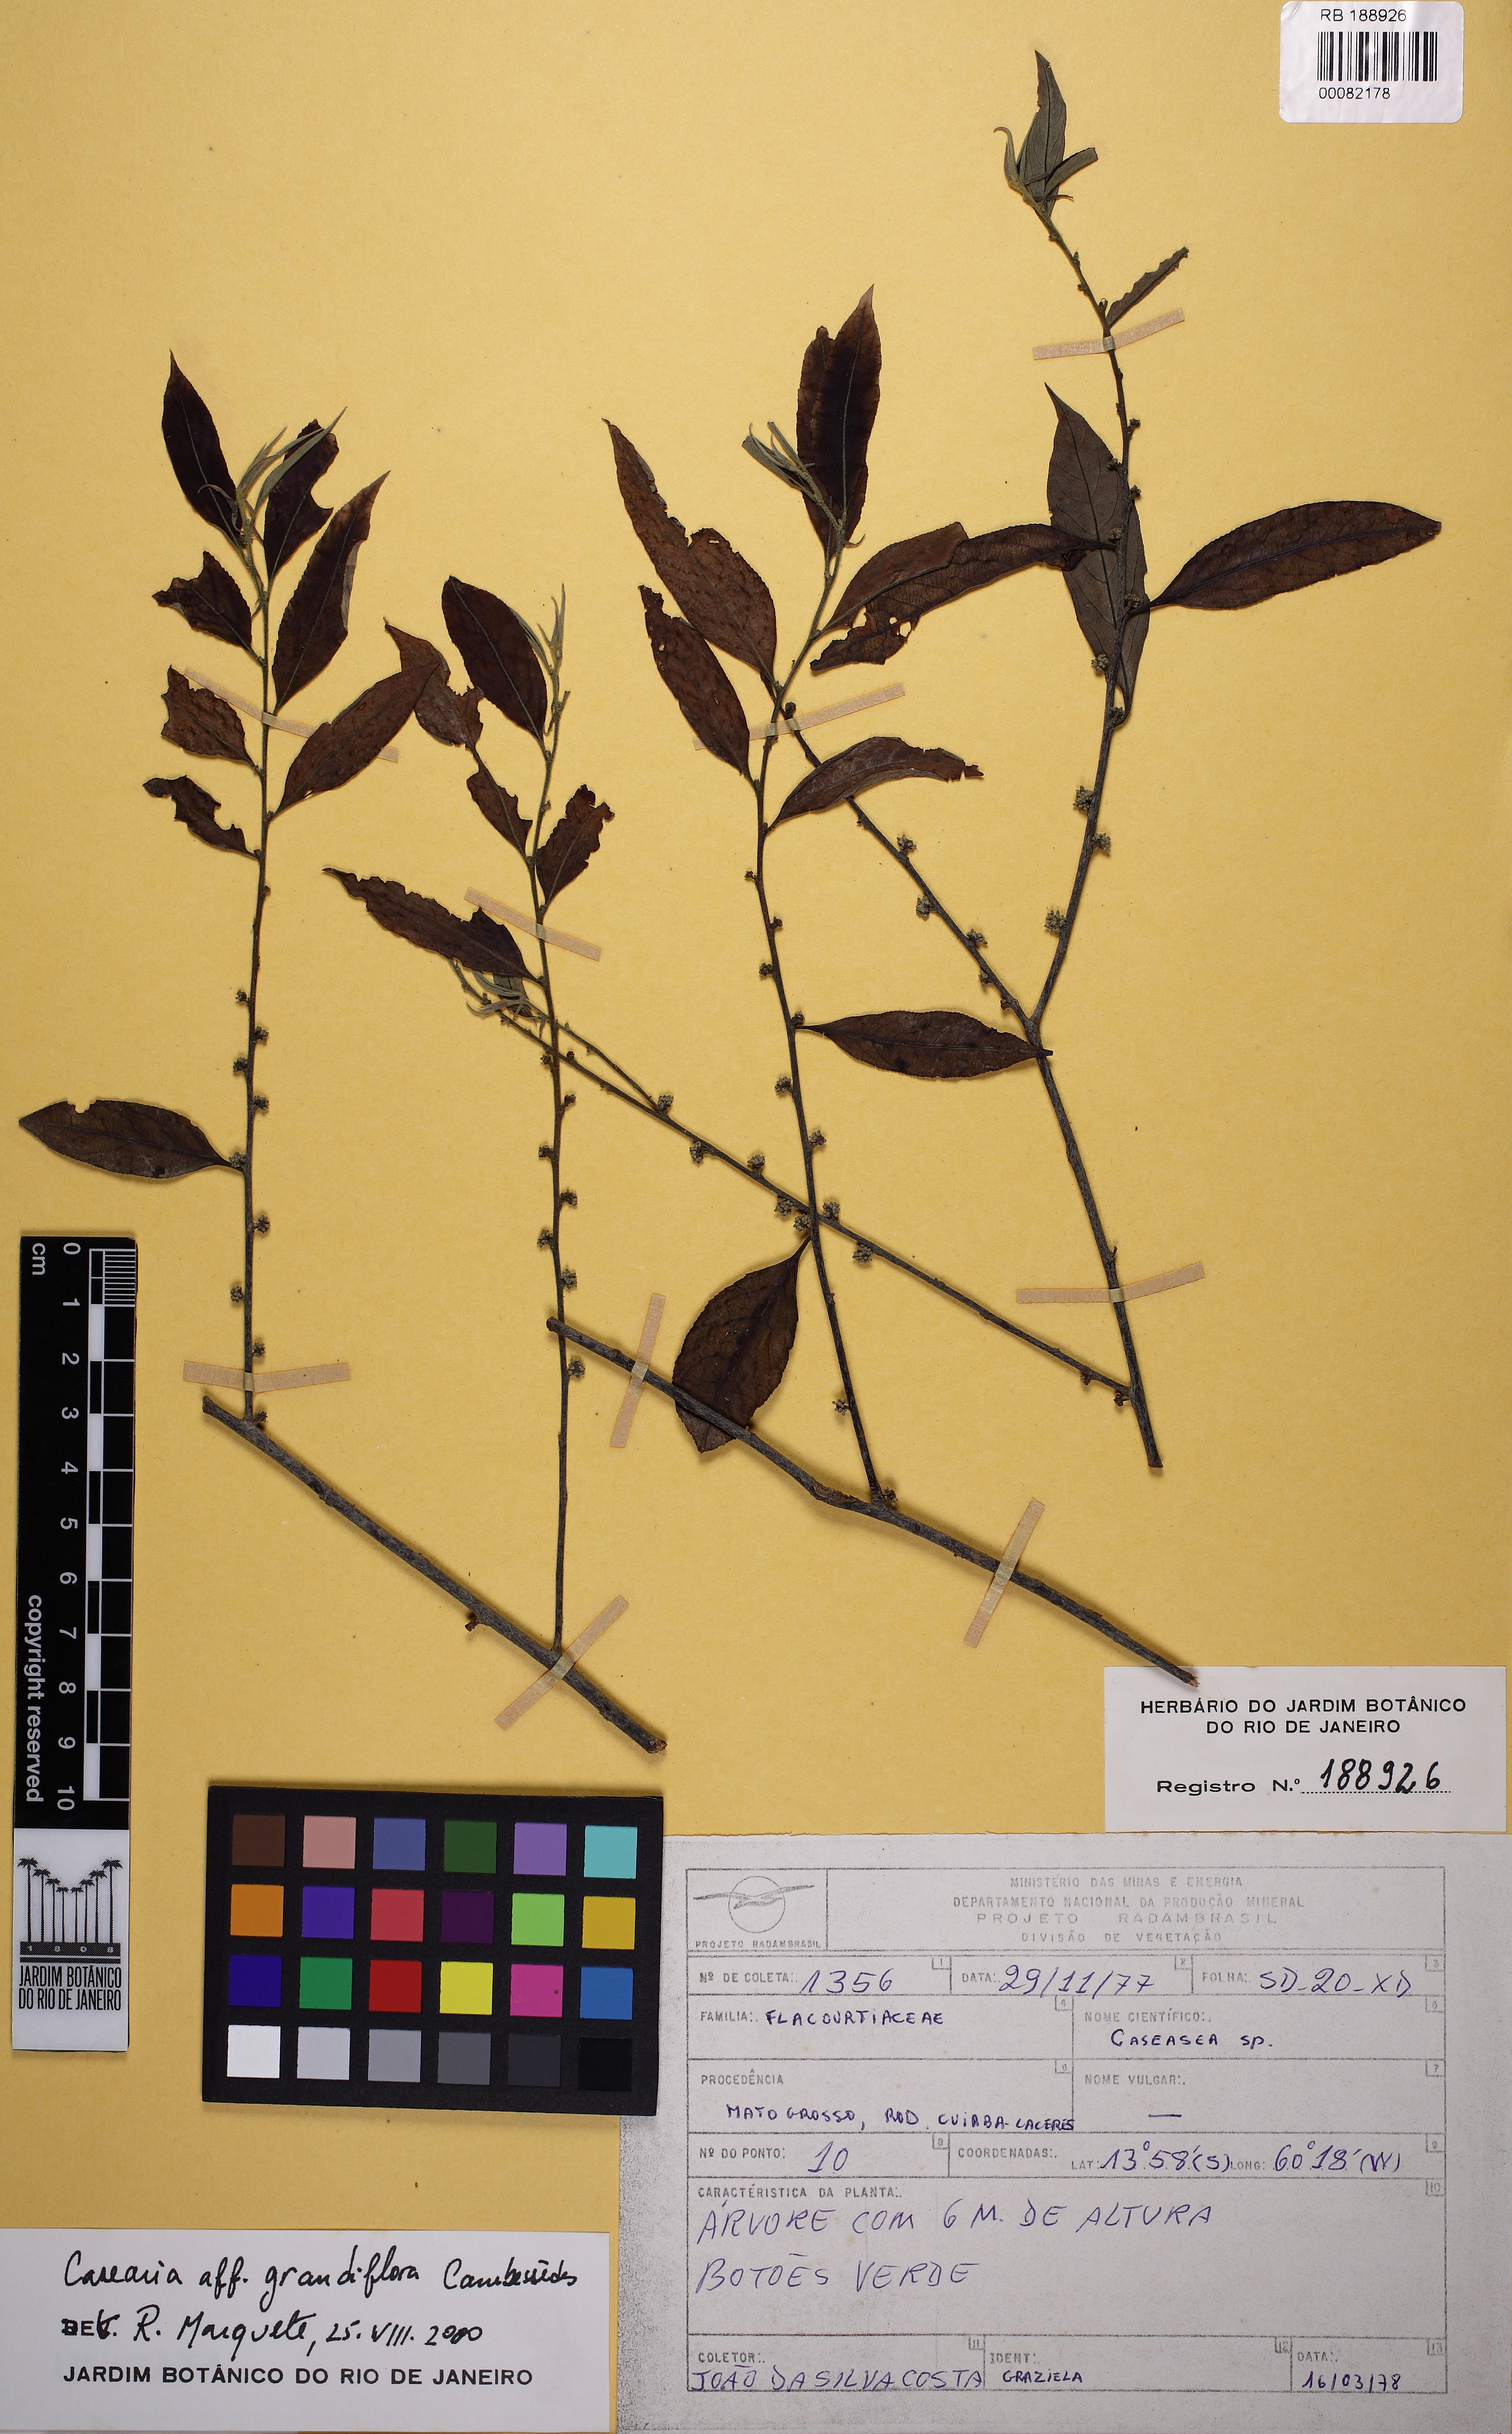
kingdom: Plantae
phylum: Tracheophyta
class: Magnoliopsida
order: Malpighiales
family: Salicaceae
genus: Casearia
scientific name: Casearia grandiflora
